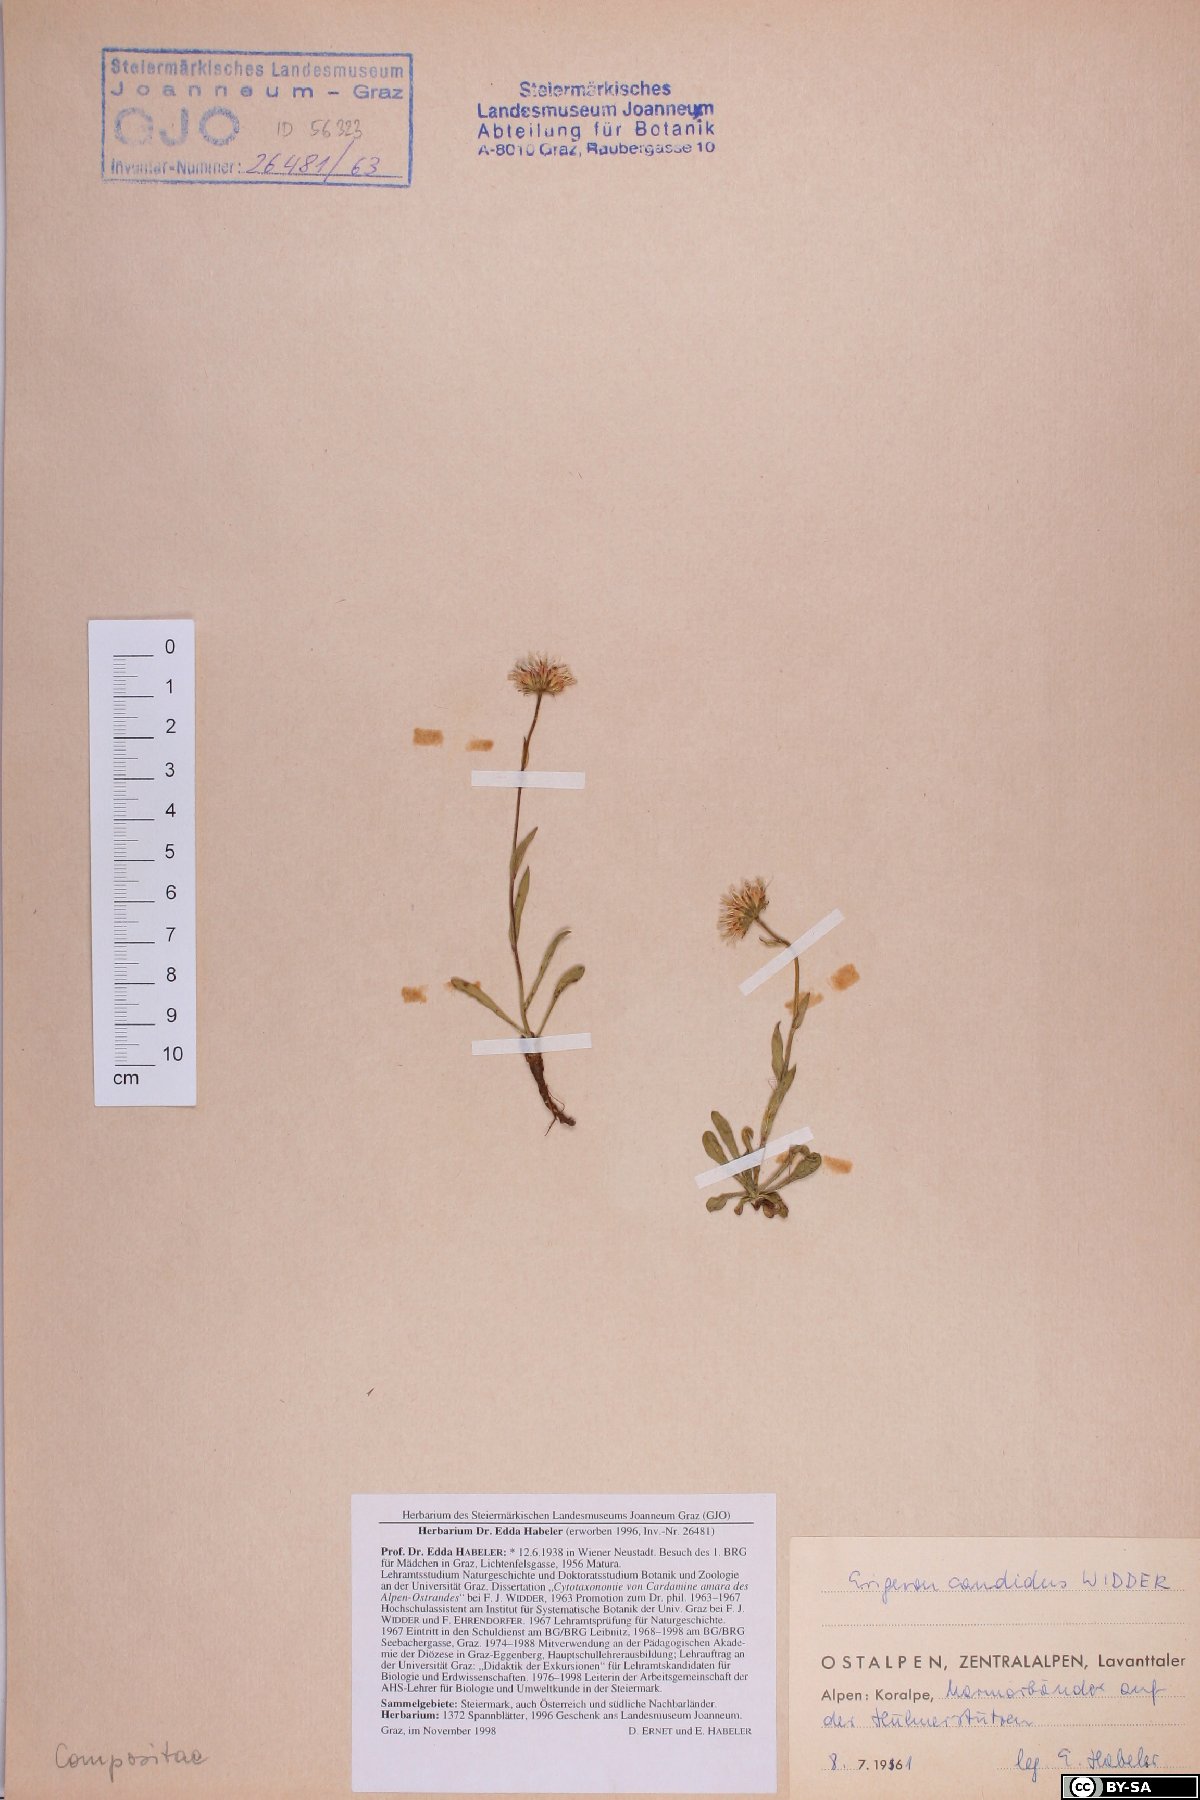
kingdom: Plantae
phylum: Tracheophyta
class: Magnoliopsida
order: Asterales
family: Asteraceae
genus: Erigeron
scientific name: Erigeron glabratus
